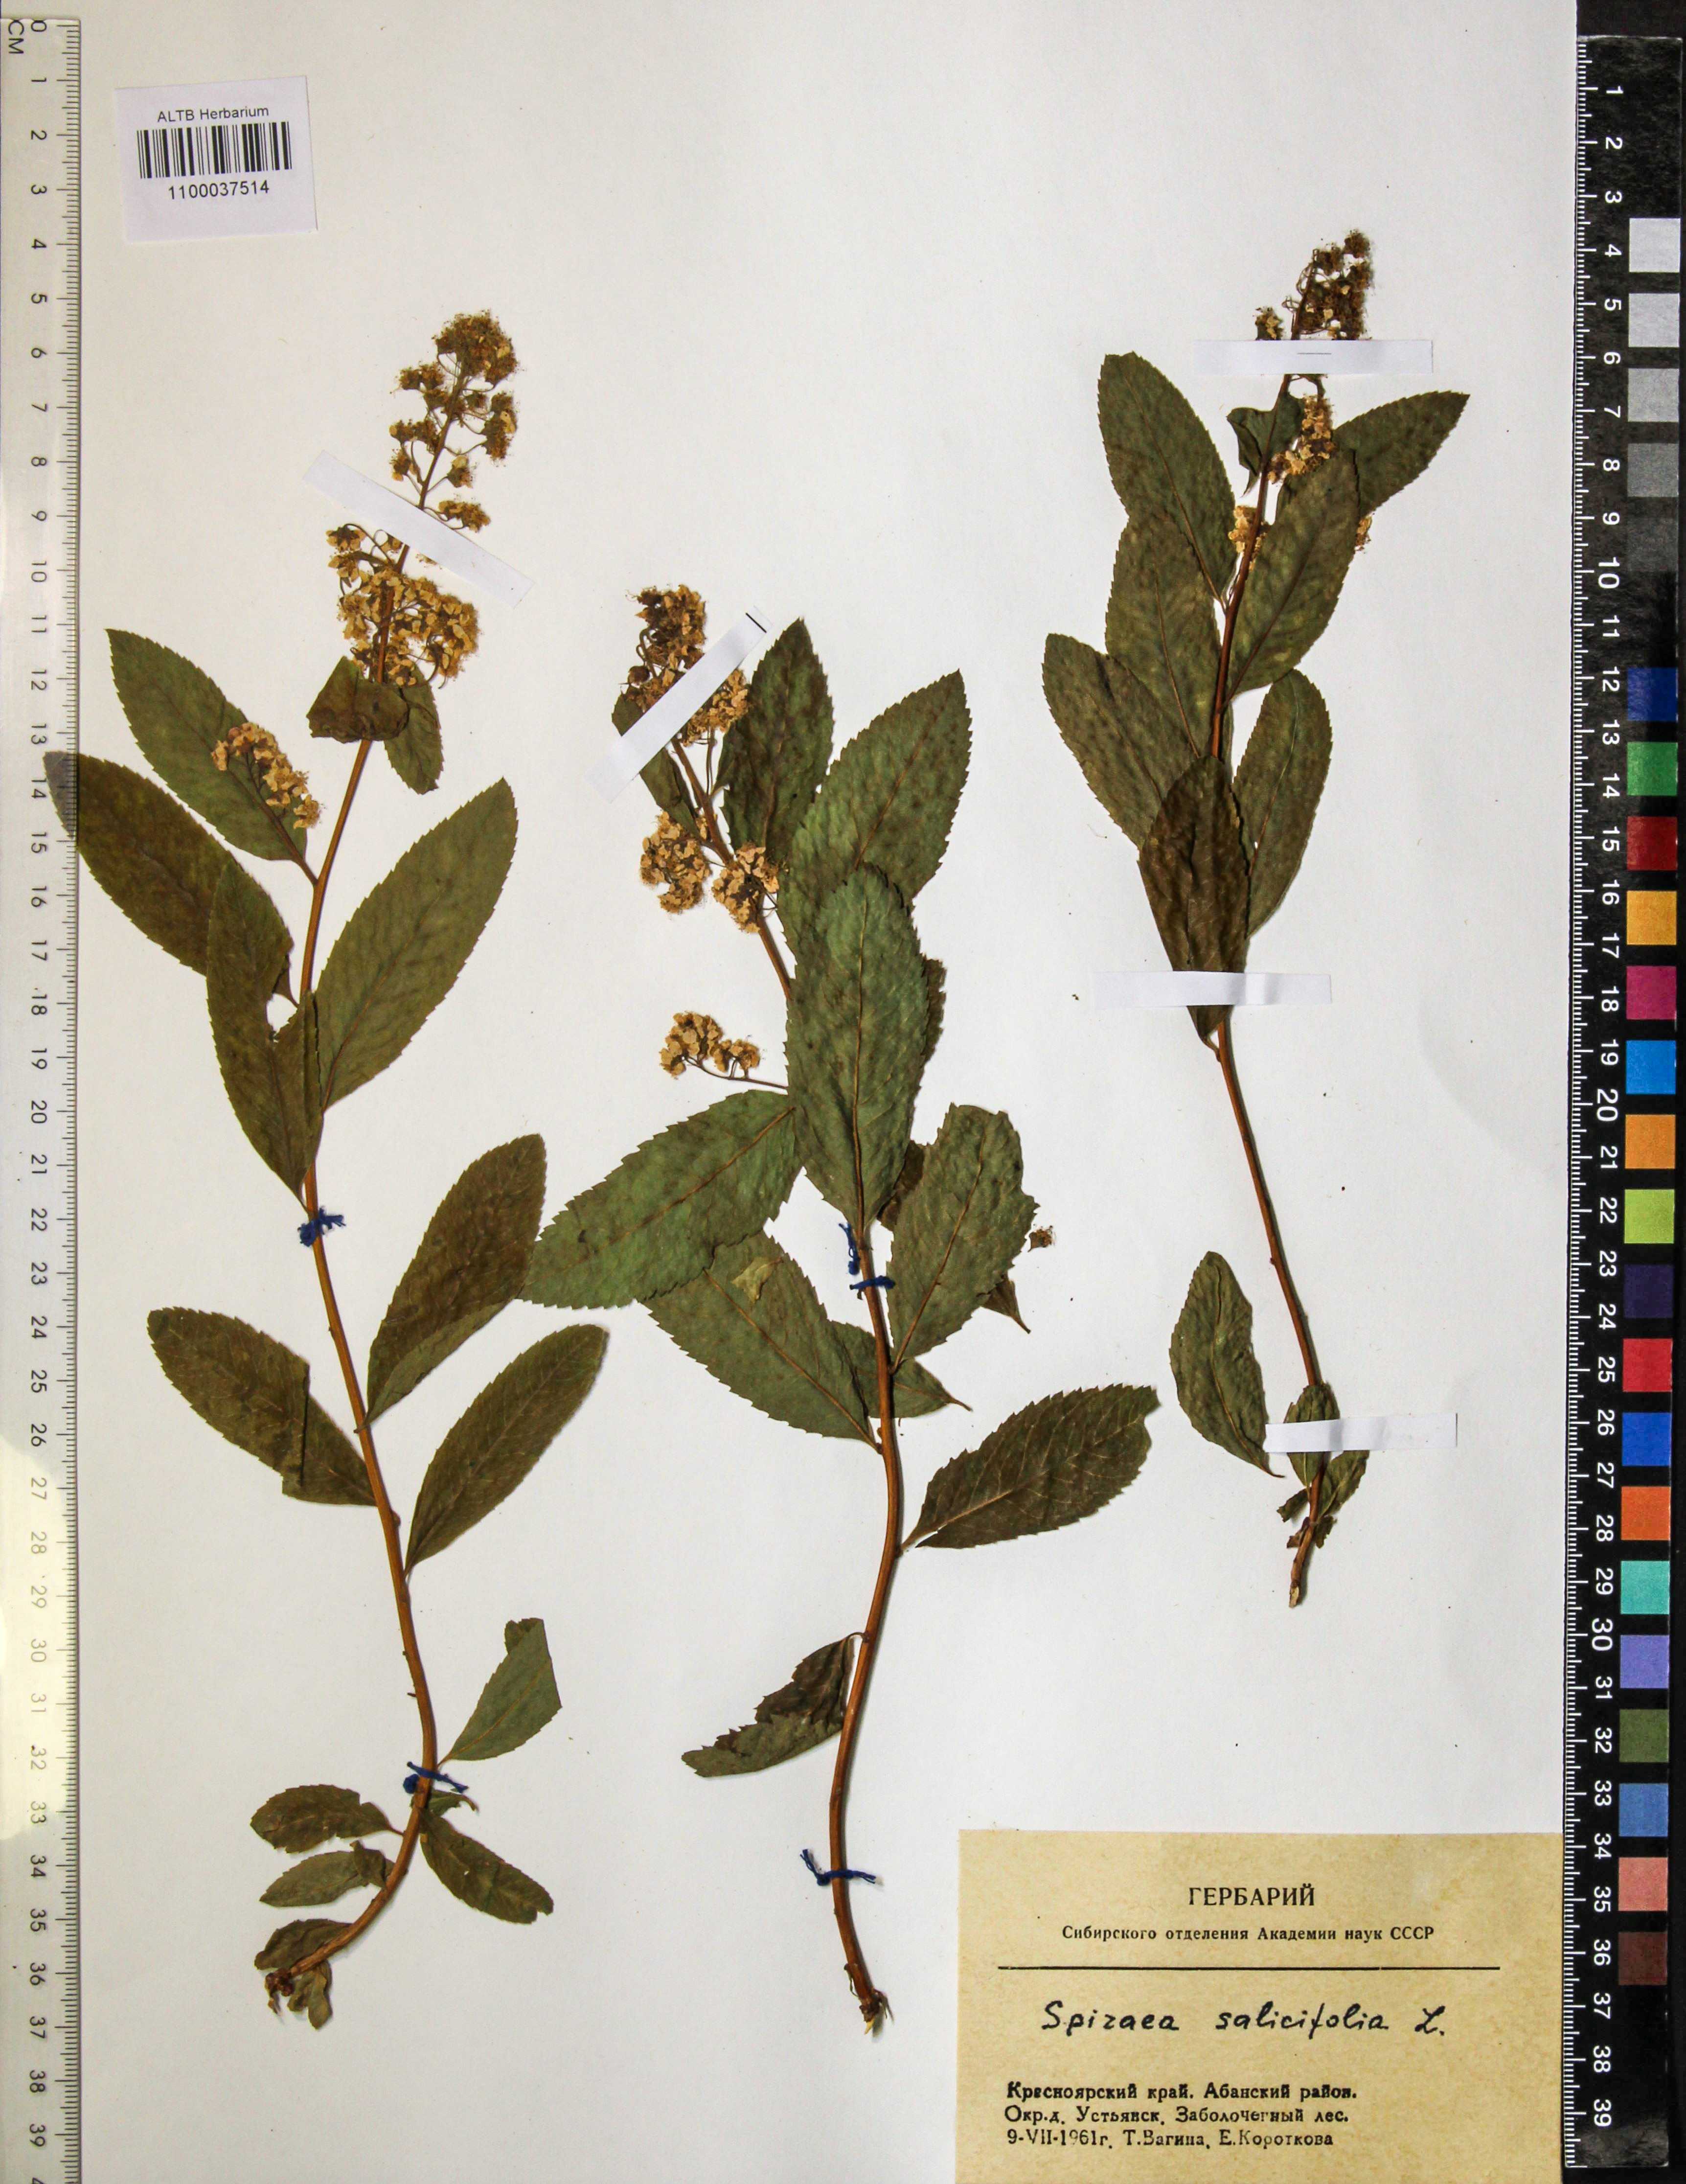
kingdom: Plantae
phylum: Tracheophyta
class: Magnoliopsida
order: Rosales
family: Rosaceae
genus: Spiraea
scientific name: Spiraea salicifolia
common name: Bridewort
